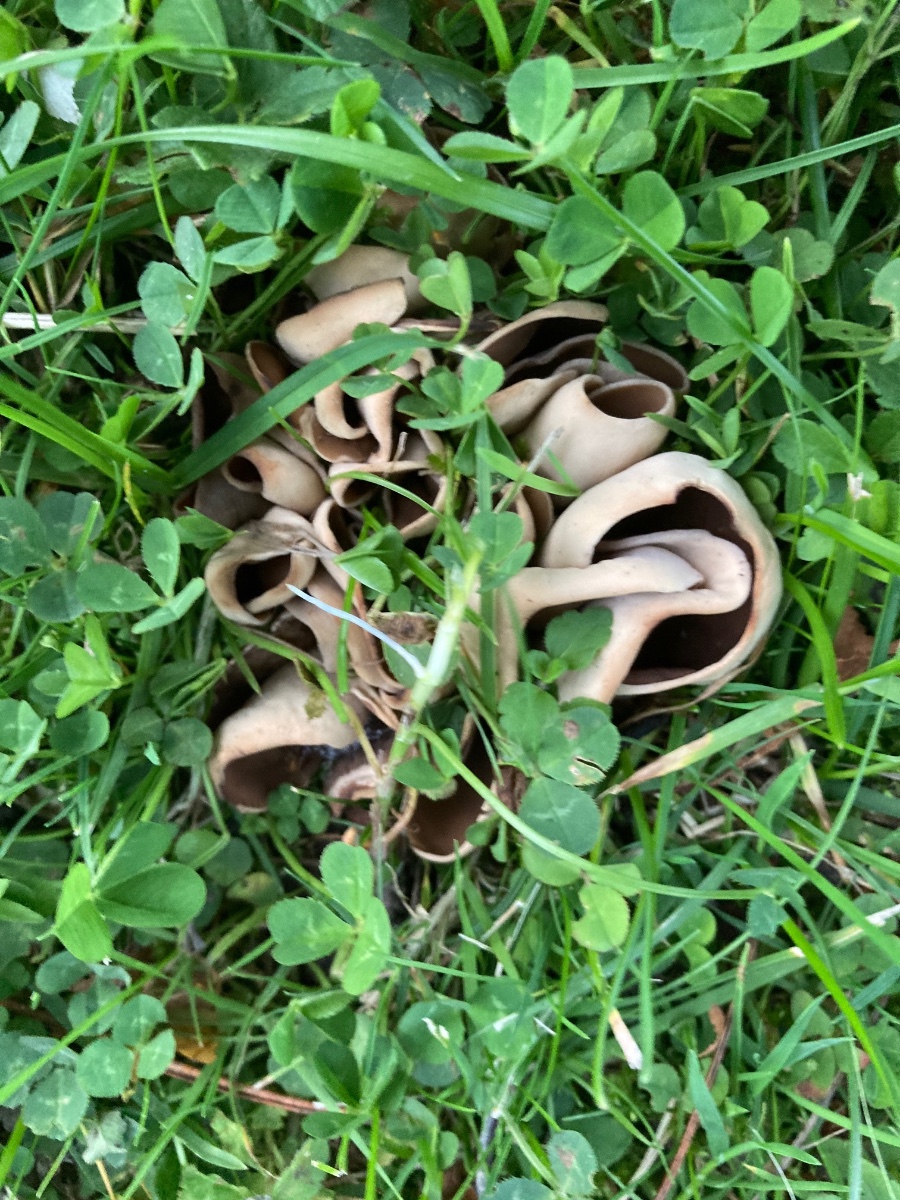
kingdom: Fungi
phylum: Ascomycota
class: Pezizomycetes
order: Pezizales
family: Otideaceae
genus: Otidea
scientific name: Otidea alutacea
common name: læder-ørebæger
